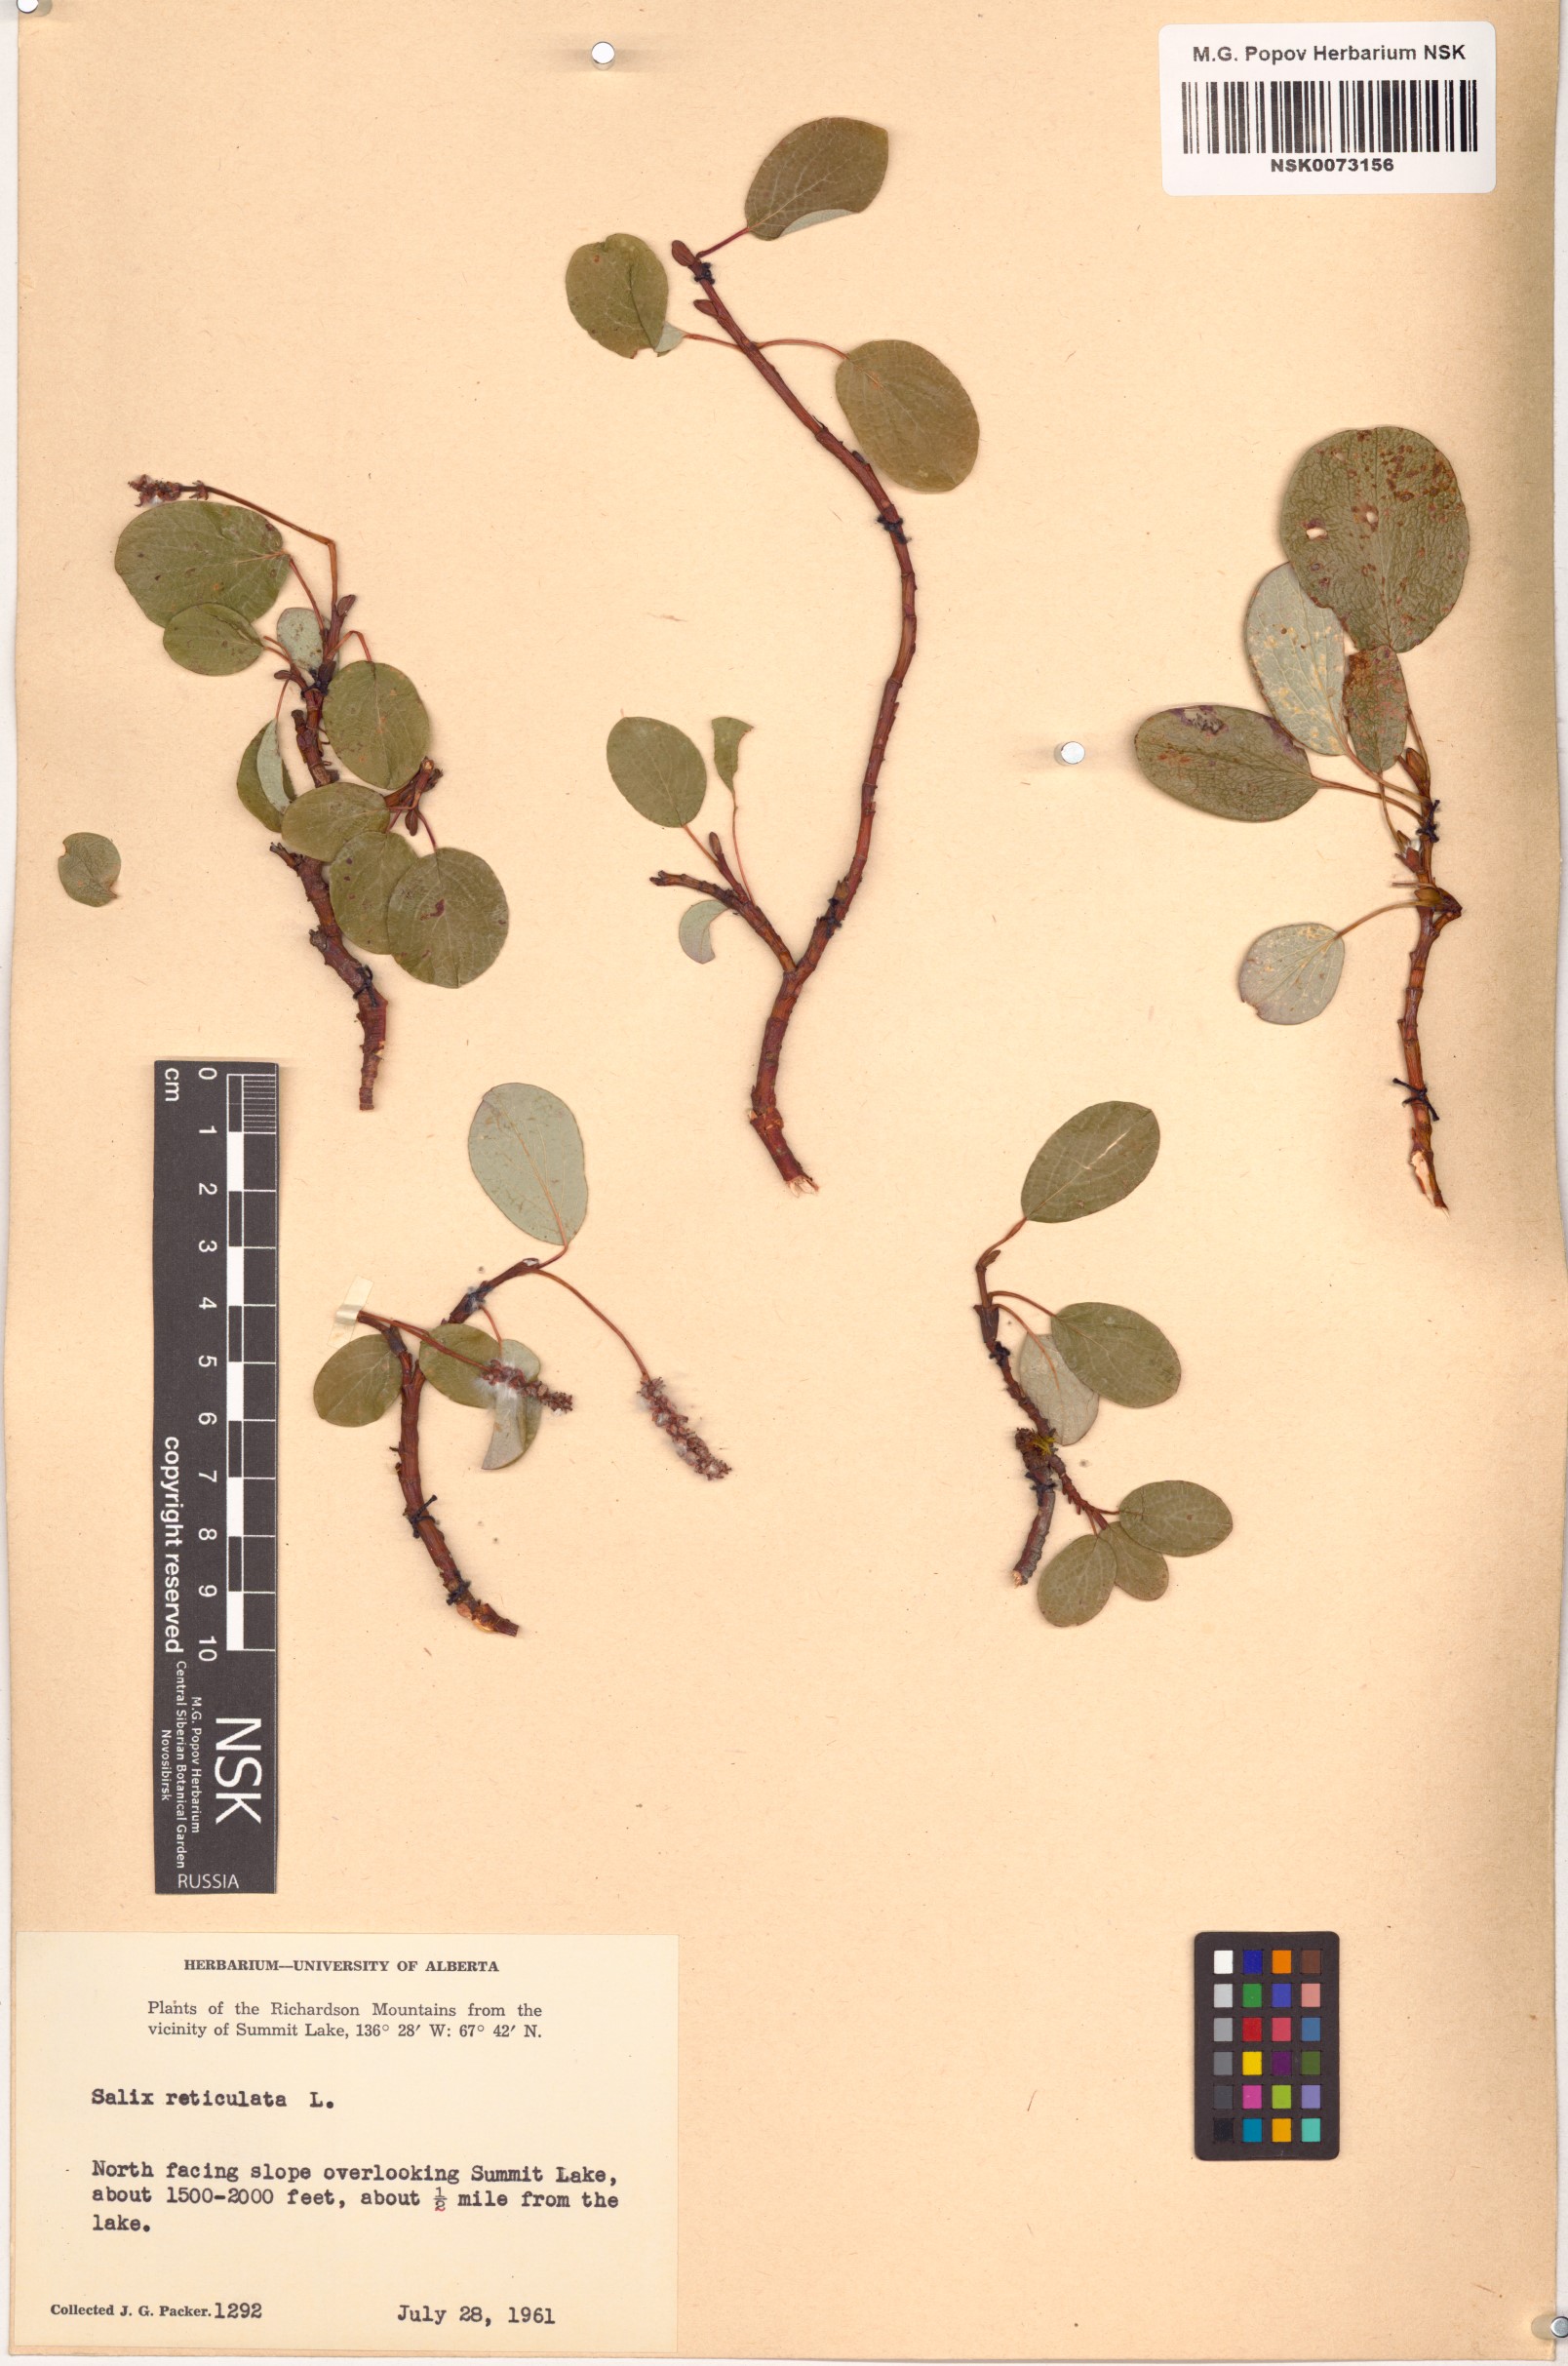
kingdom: Plantae
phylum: Tracheophyta
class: Magnoliopsida
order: Malpighiales
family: Salicaceae
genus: Salix
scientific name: Salix reticulata
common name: Net-leaved willow
